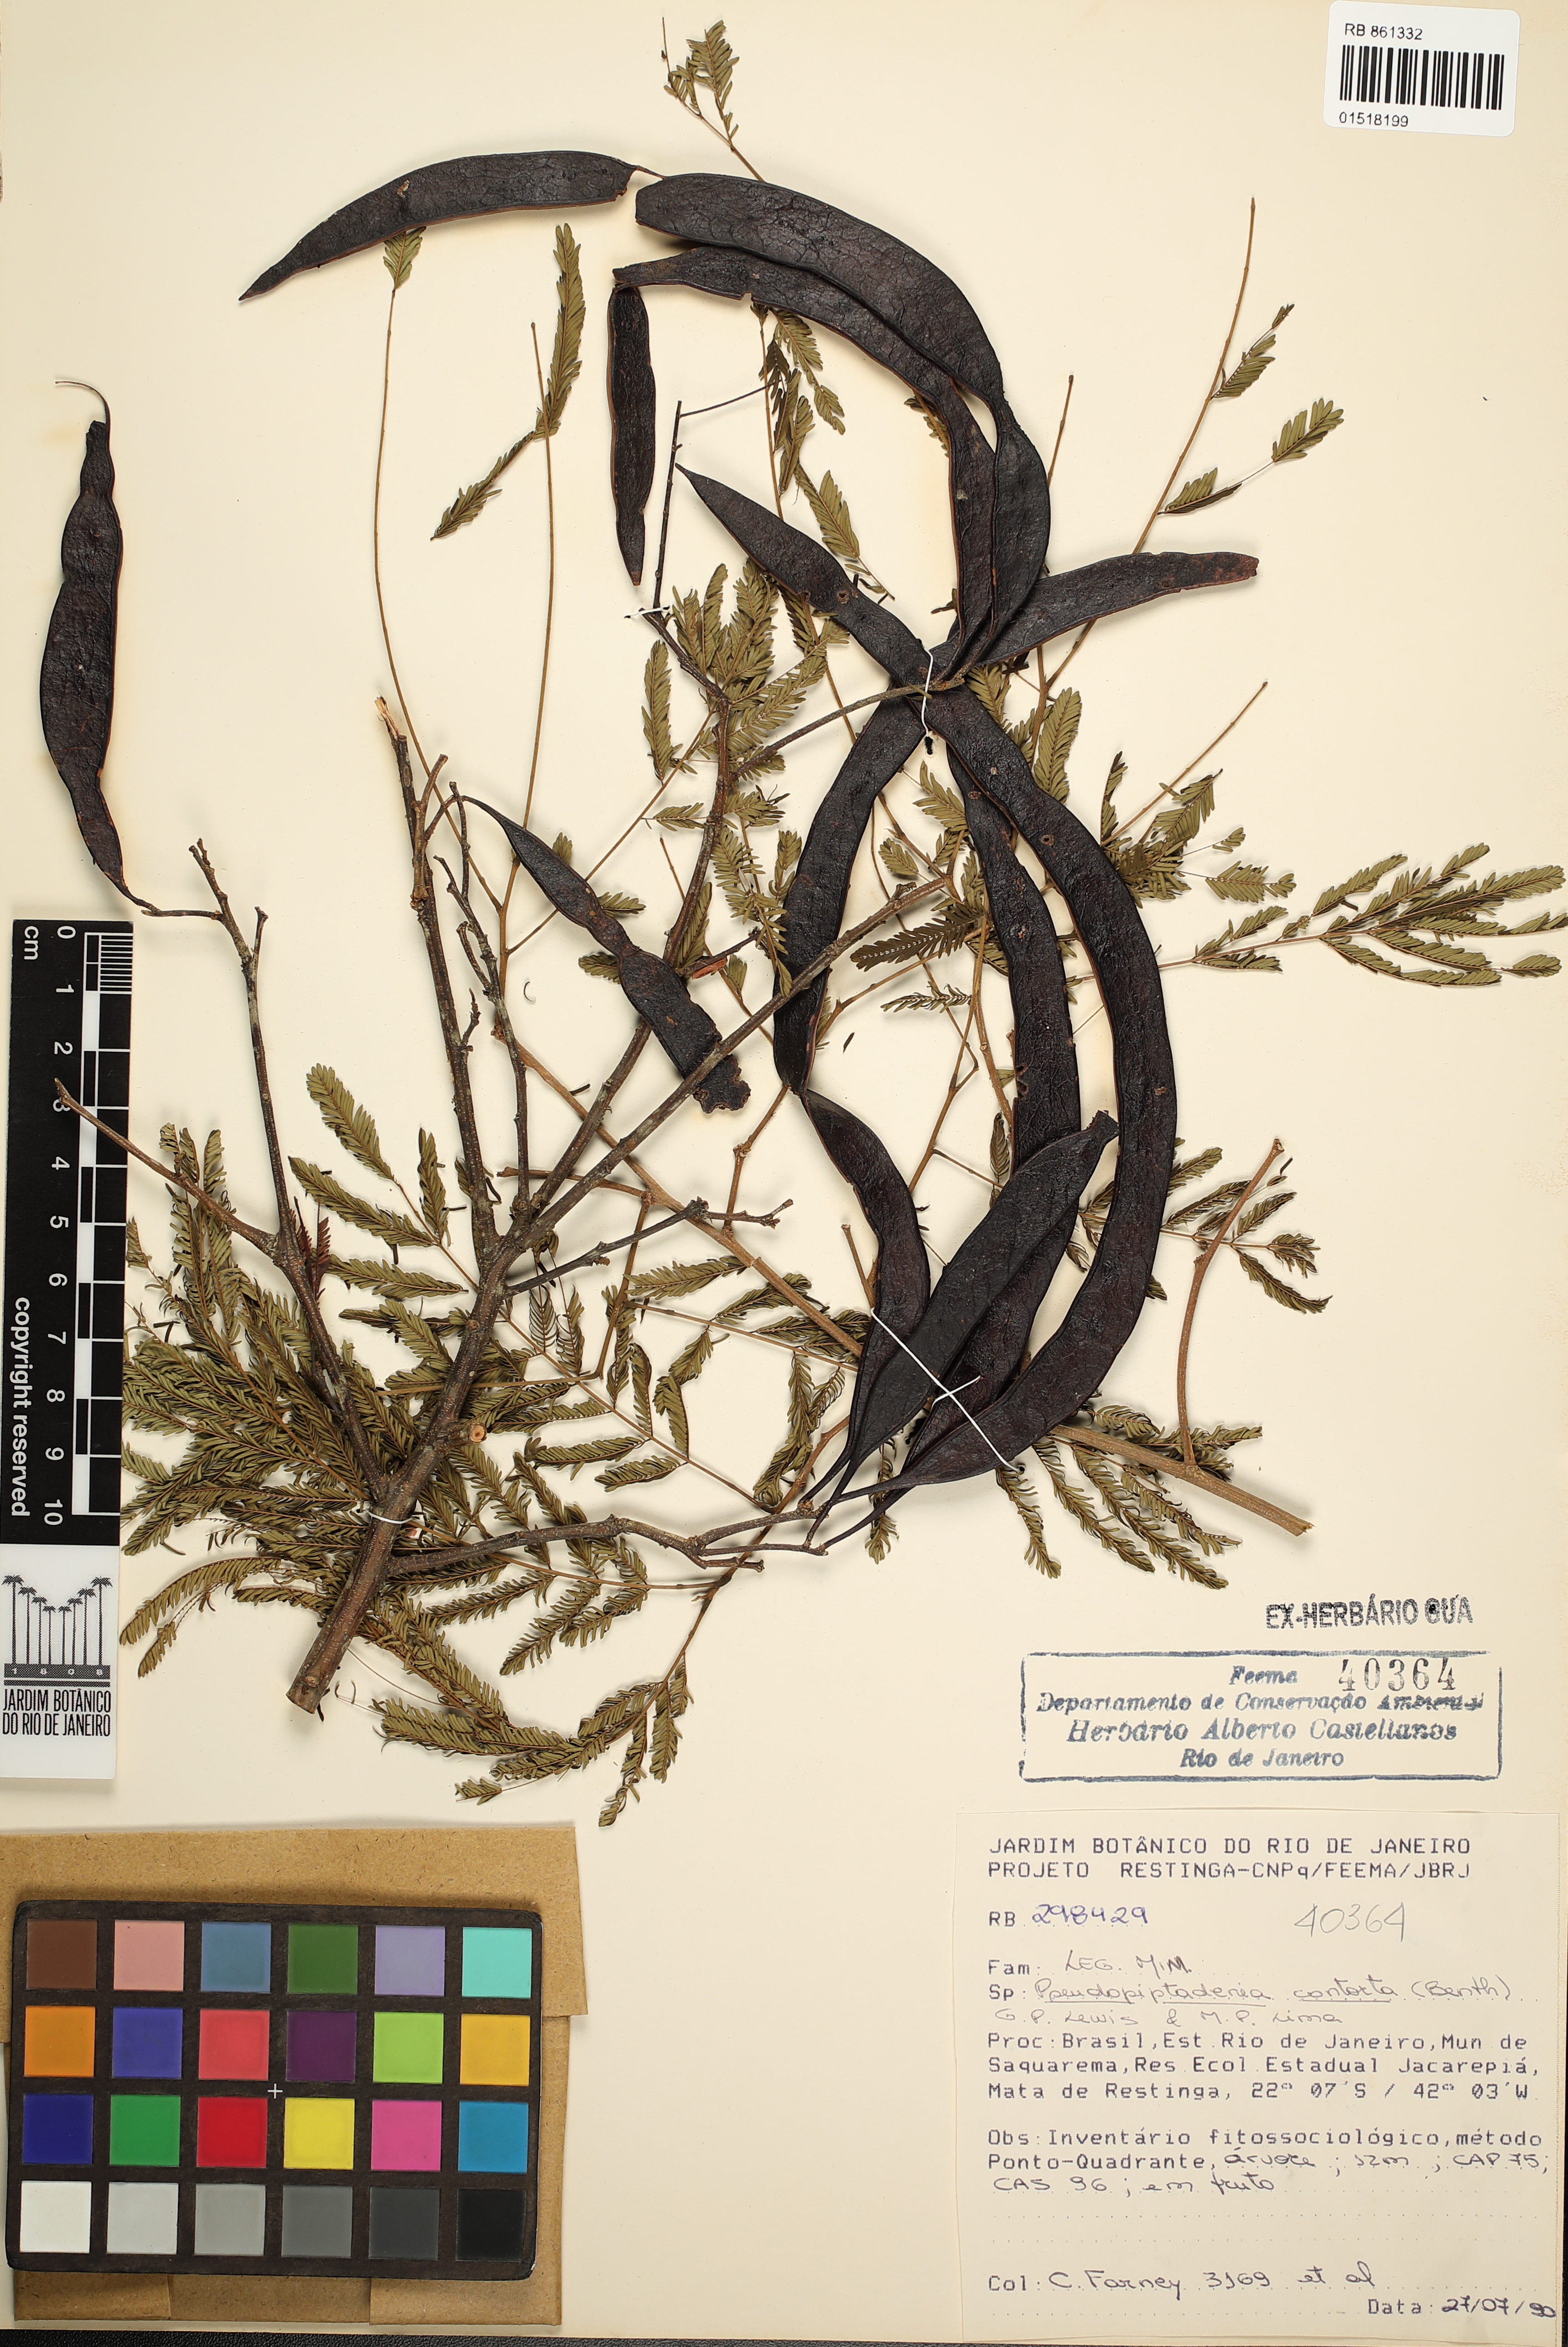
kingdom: Plantae
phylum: Tracheophyta
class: Magnoliopsida
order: Fabales
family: Fabaceae
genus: Pseudopiptadenia
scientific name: Pseudopiptadenia contorta
